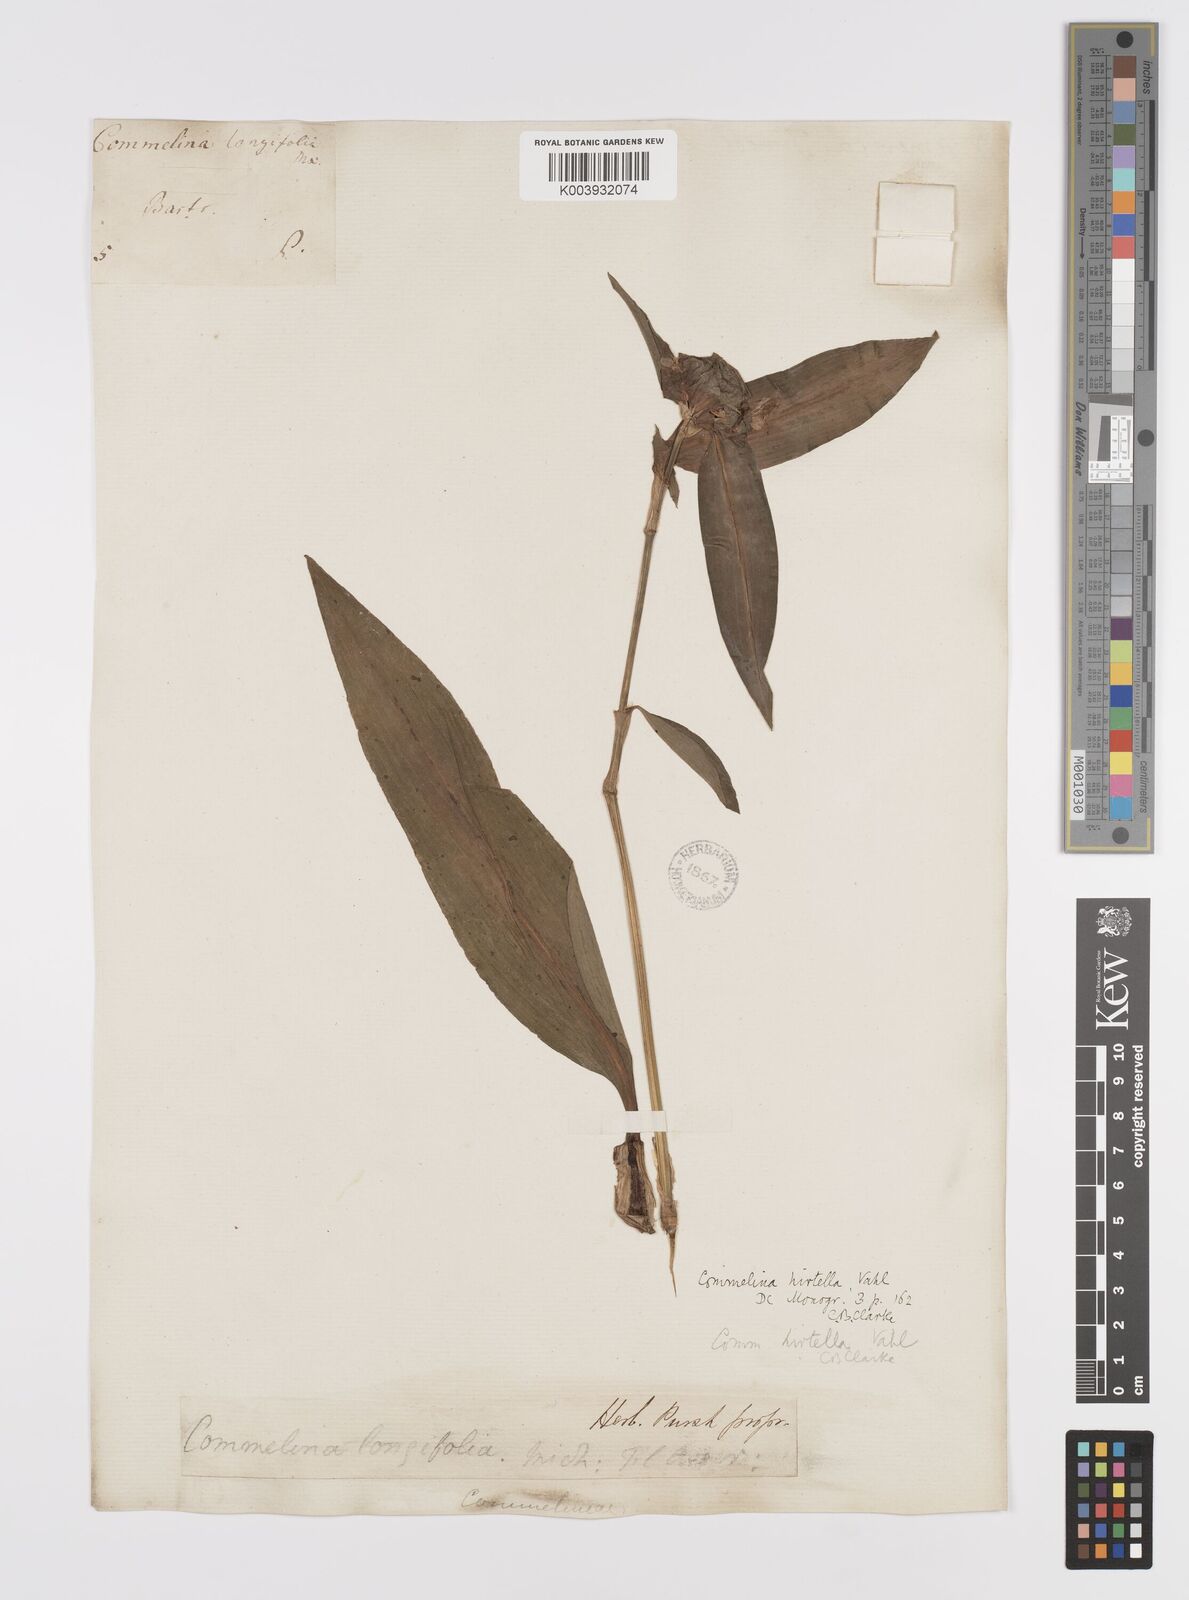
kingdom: Plantae
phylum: Tracheophyta
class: Liliopsida
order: Commelinales
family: Commelinaceae
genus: Commelina
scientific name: Commelina virginica
